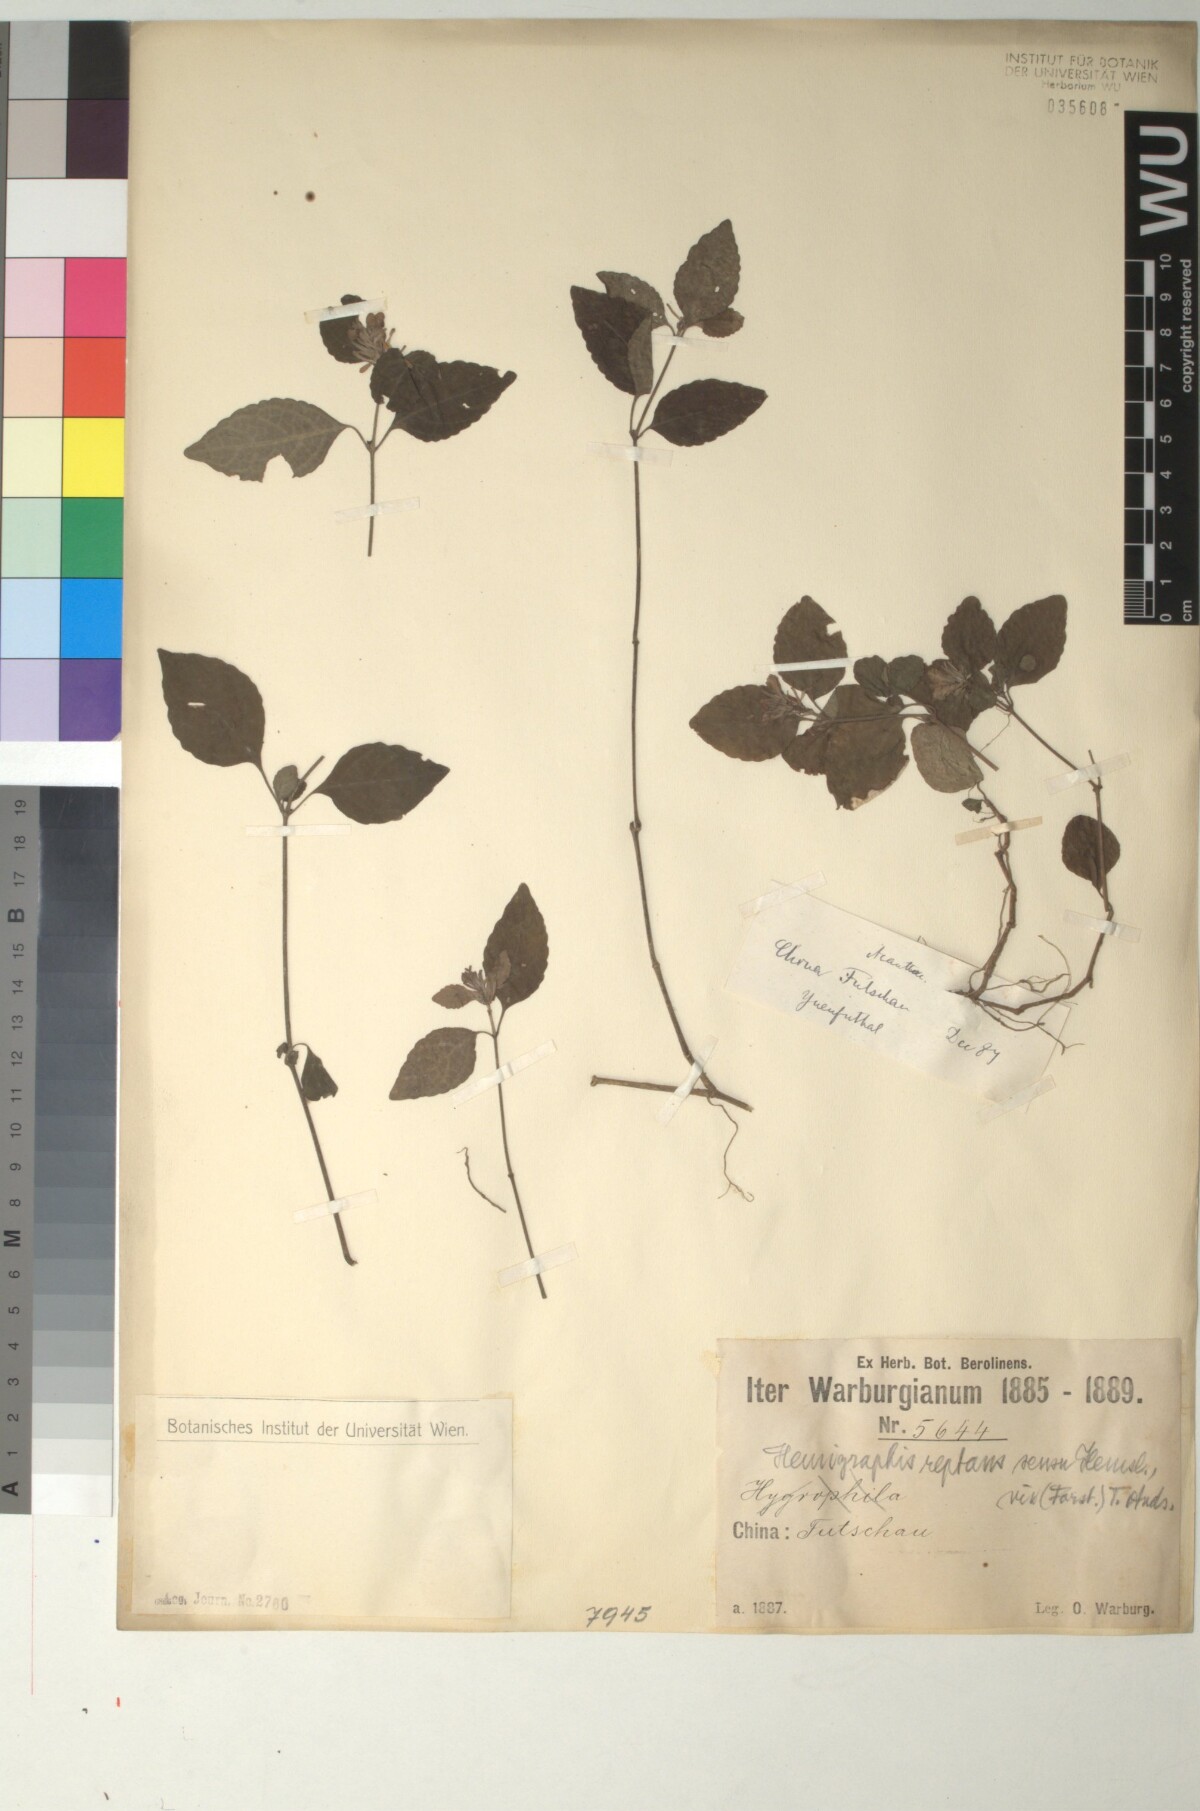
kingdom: Plantae
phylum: Tracheophyta
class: Magnoliopsida
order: Lamiales
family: Acanthaceae
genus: Strobilanthes
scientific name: Strobilanthes reptans
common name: Acanthaceae
